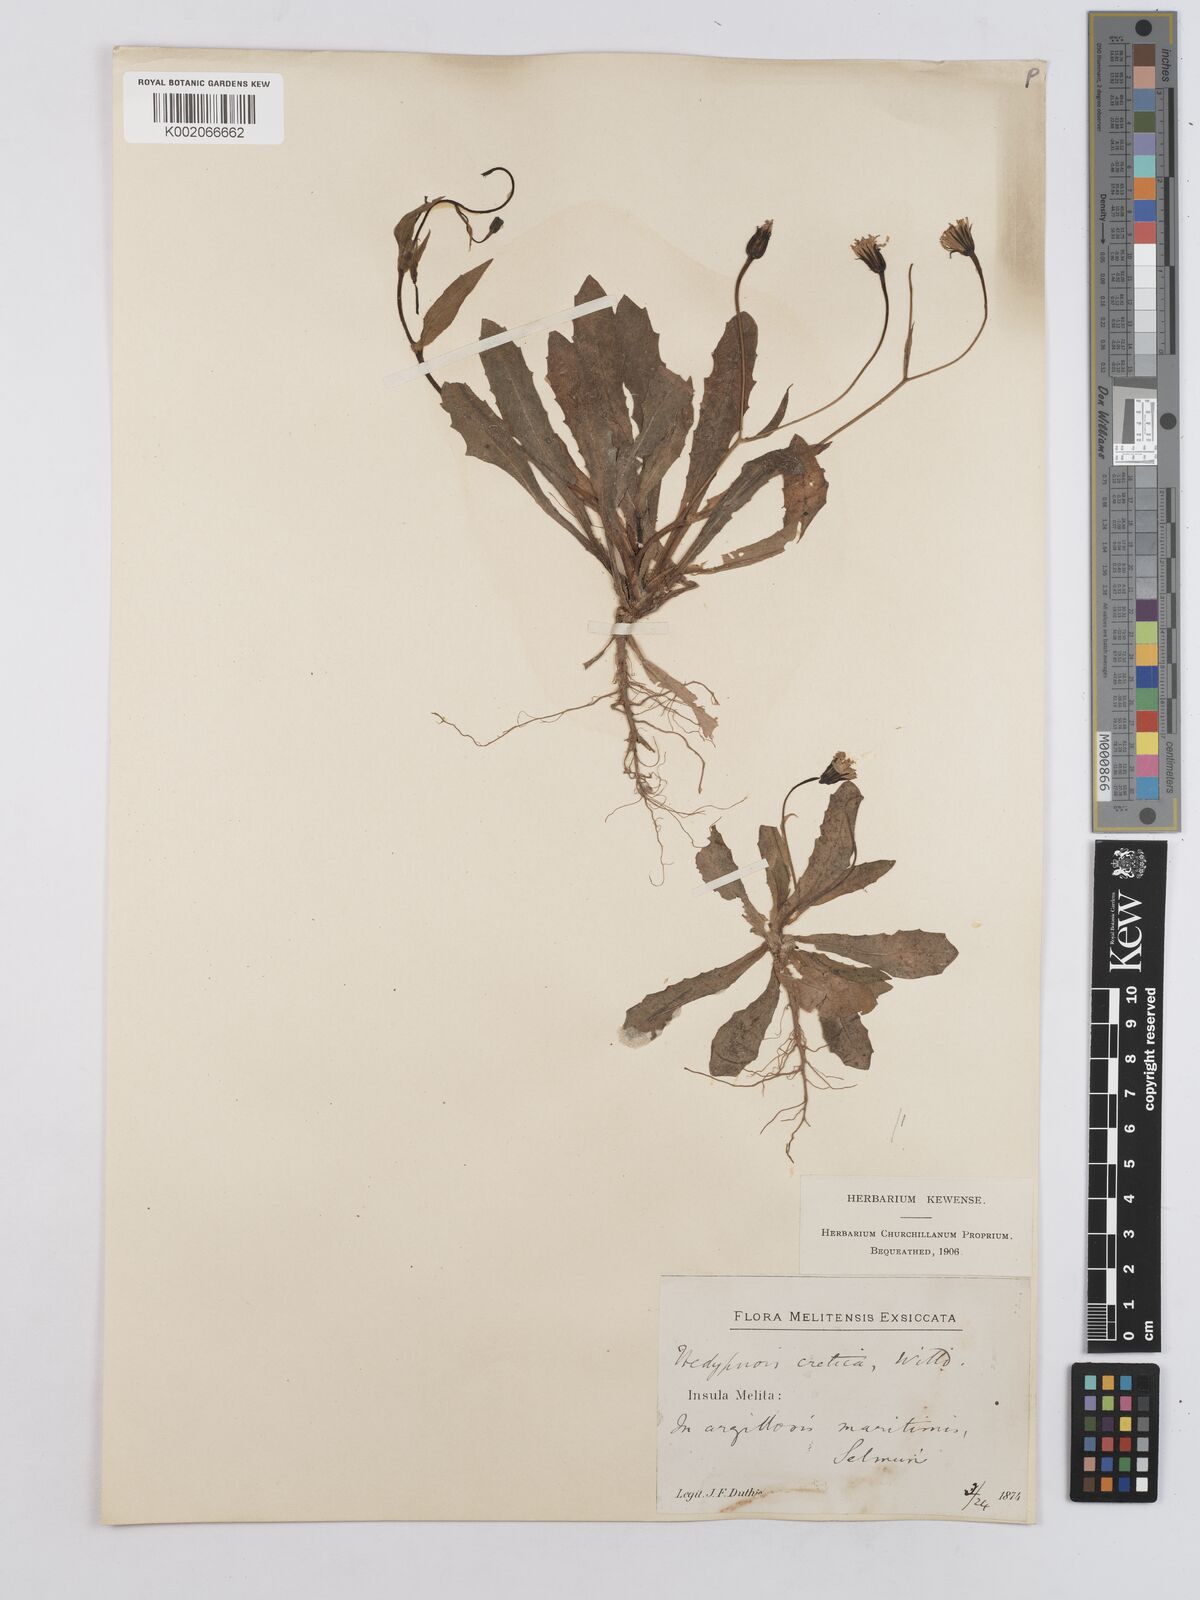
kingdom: Plantae
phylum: Tracheophyta
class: Magnoliopsida
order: Asterales
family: Asteraceae
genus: Hedypnois
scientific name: Hedypnois rhagadioloides
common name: Cretan weed
